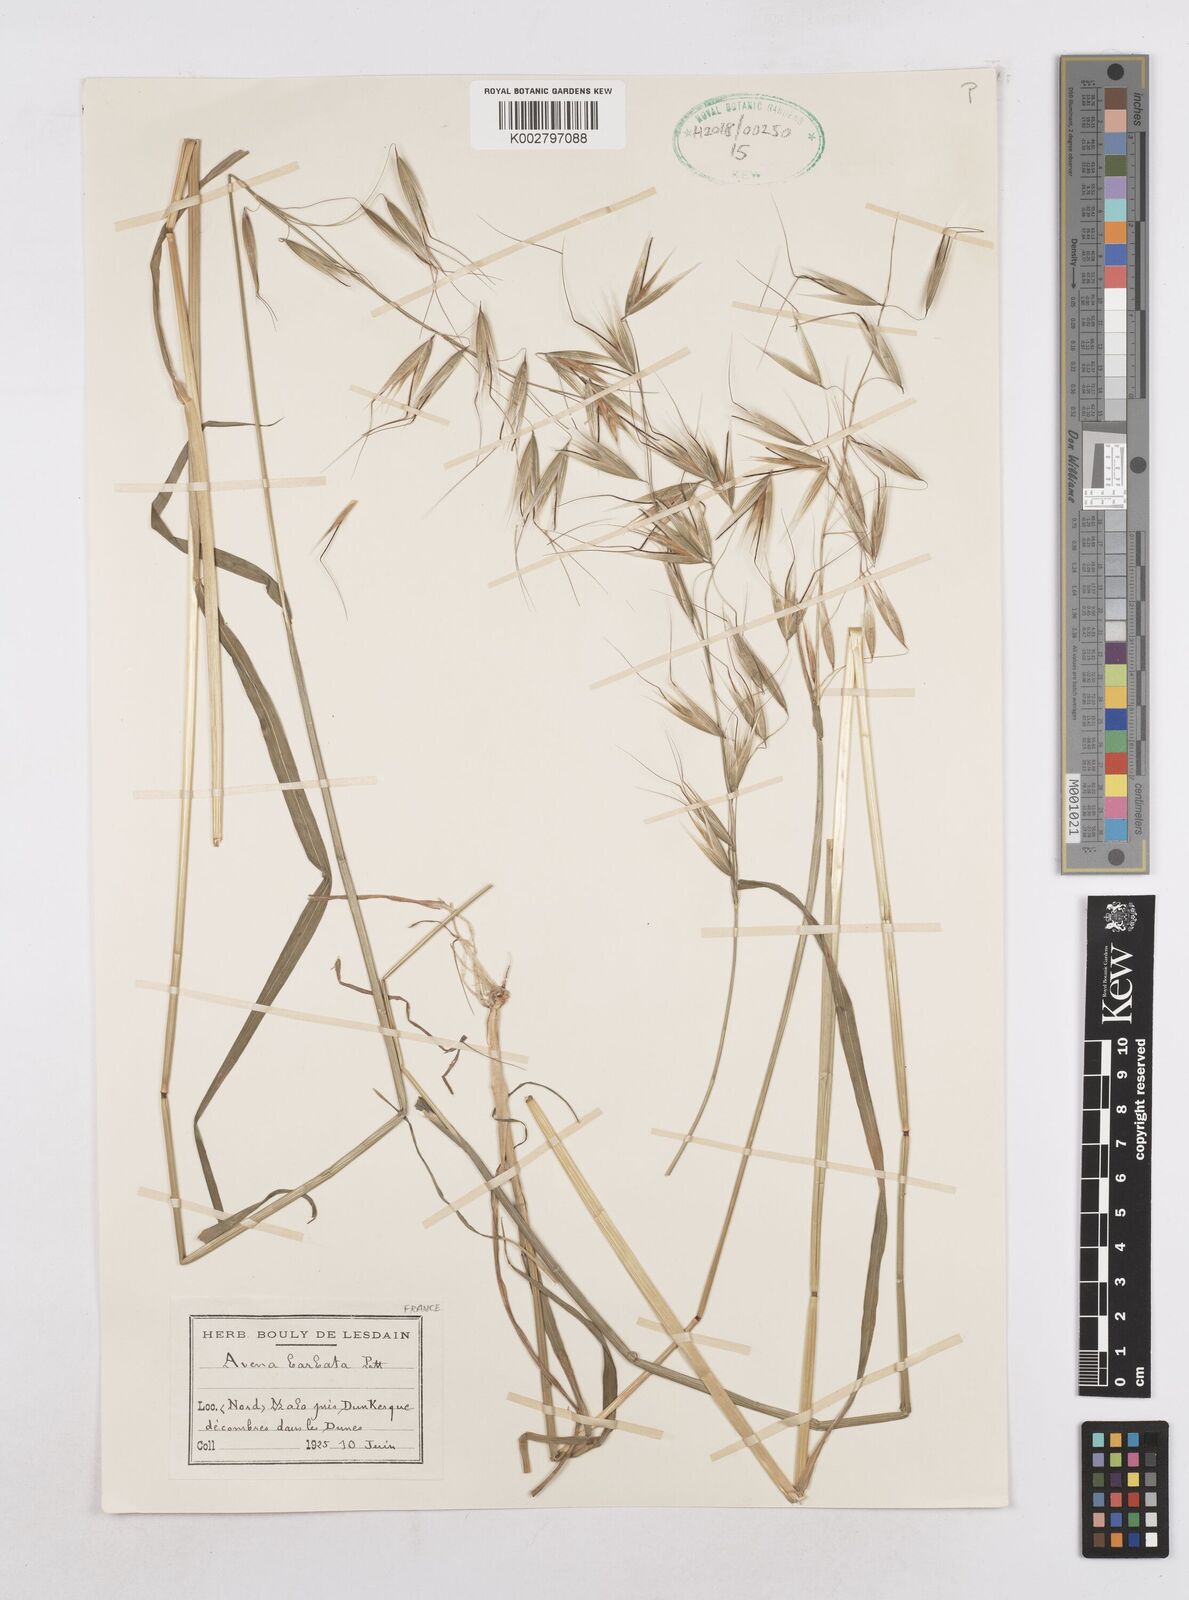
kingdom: Plantae
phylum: Tracheophyta
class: Liliopsida
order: Poales
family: Poaceae
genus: Avena
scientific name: Avena
